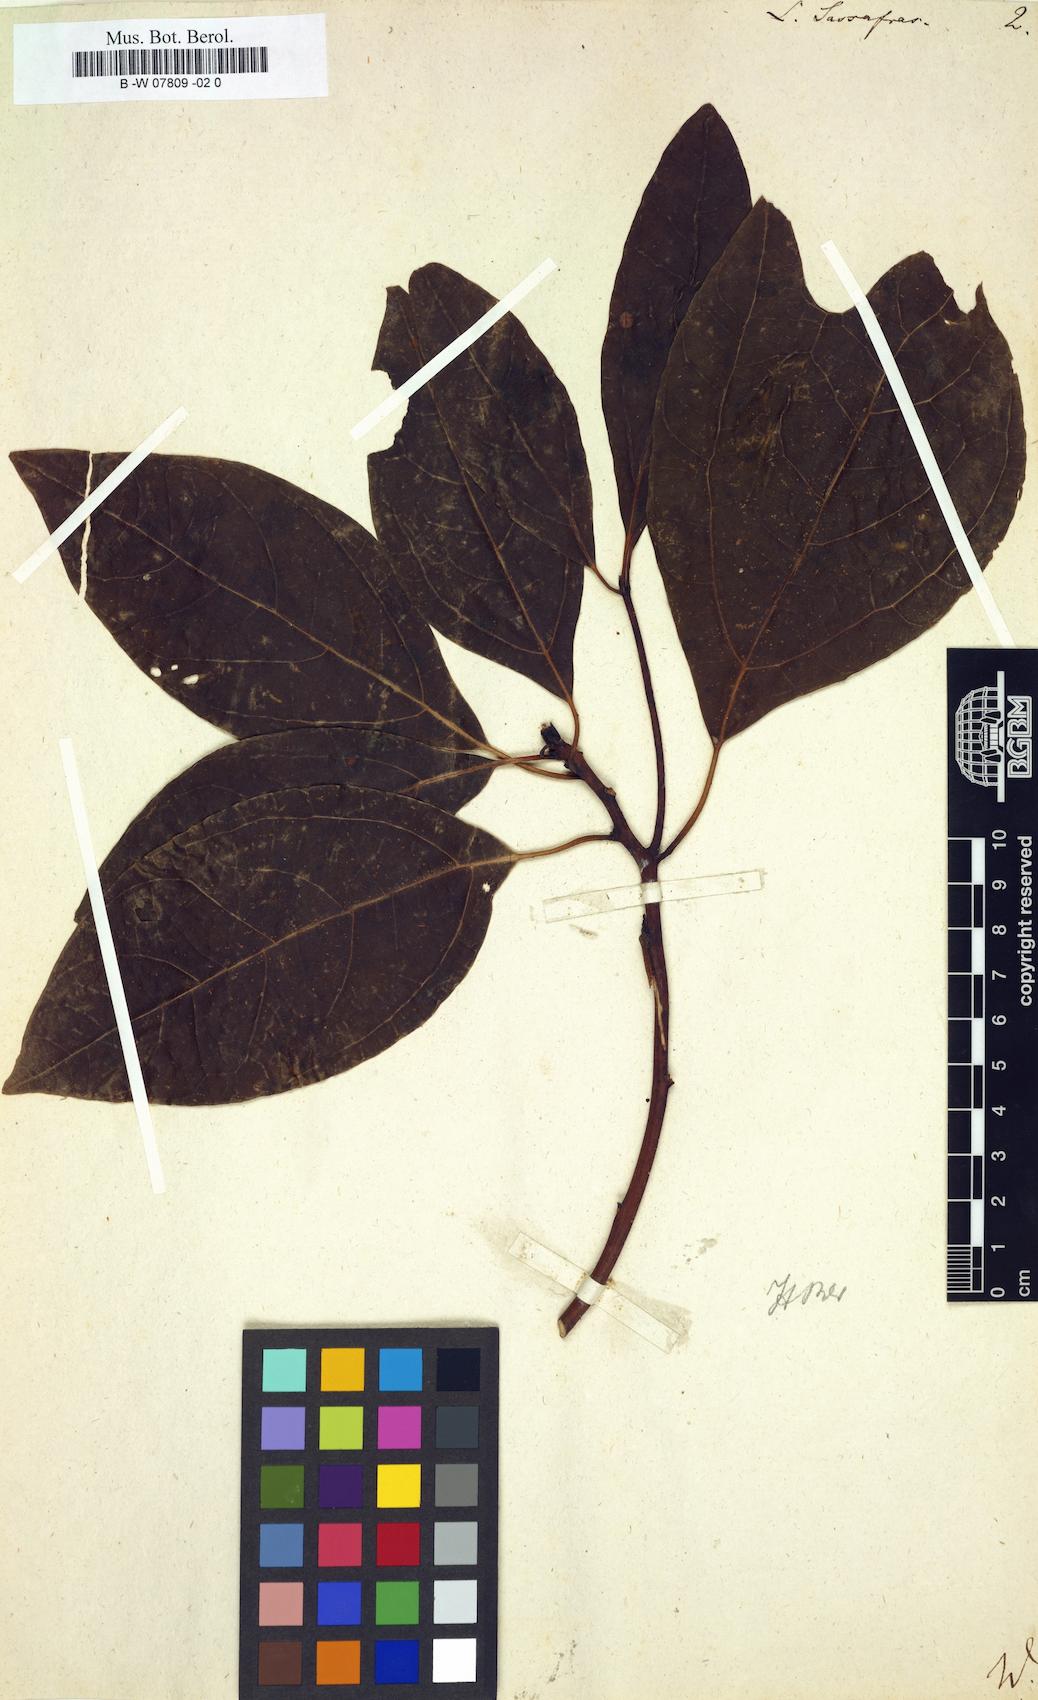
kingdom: Plantae
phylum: Tracheophyta
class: Magnoliopsida
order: Laurales
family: Lauraceae
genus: Sassafras
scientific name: Sassafras albidum
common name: Sassafras
